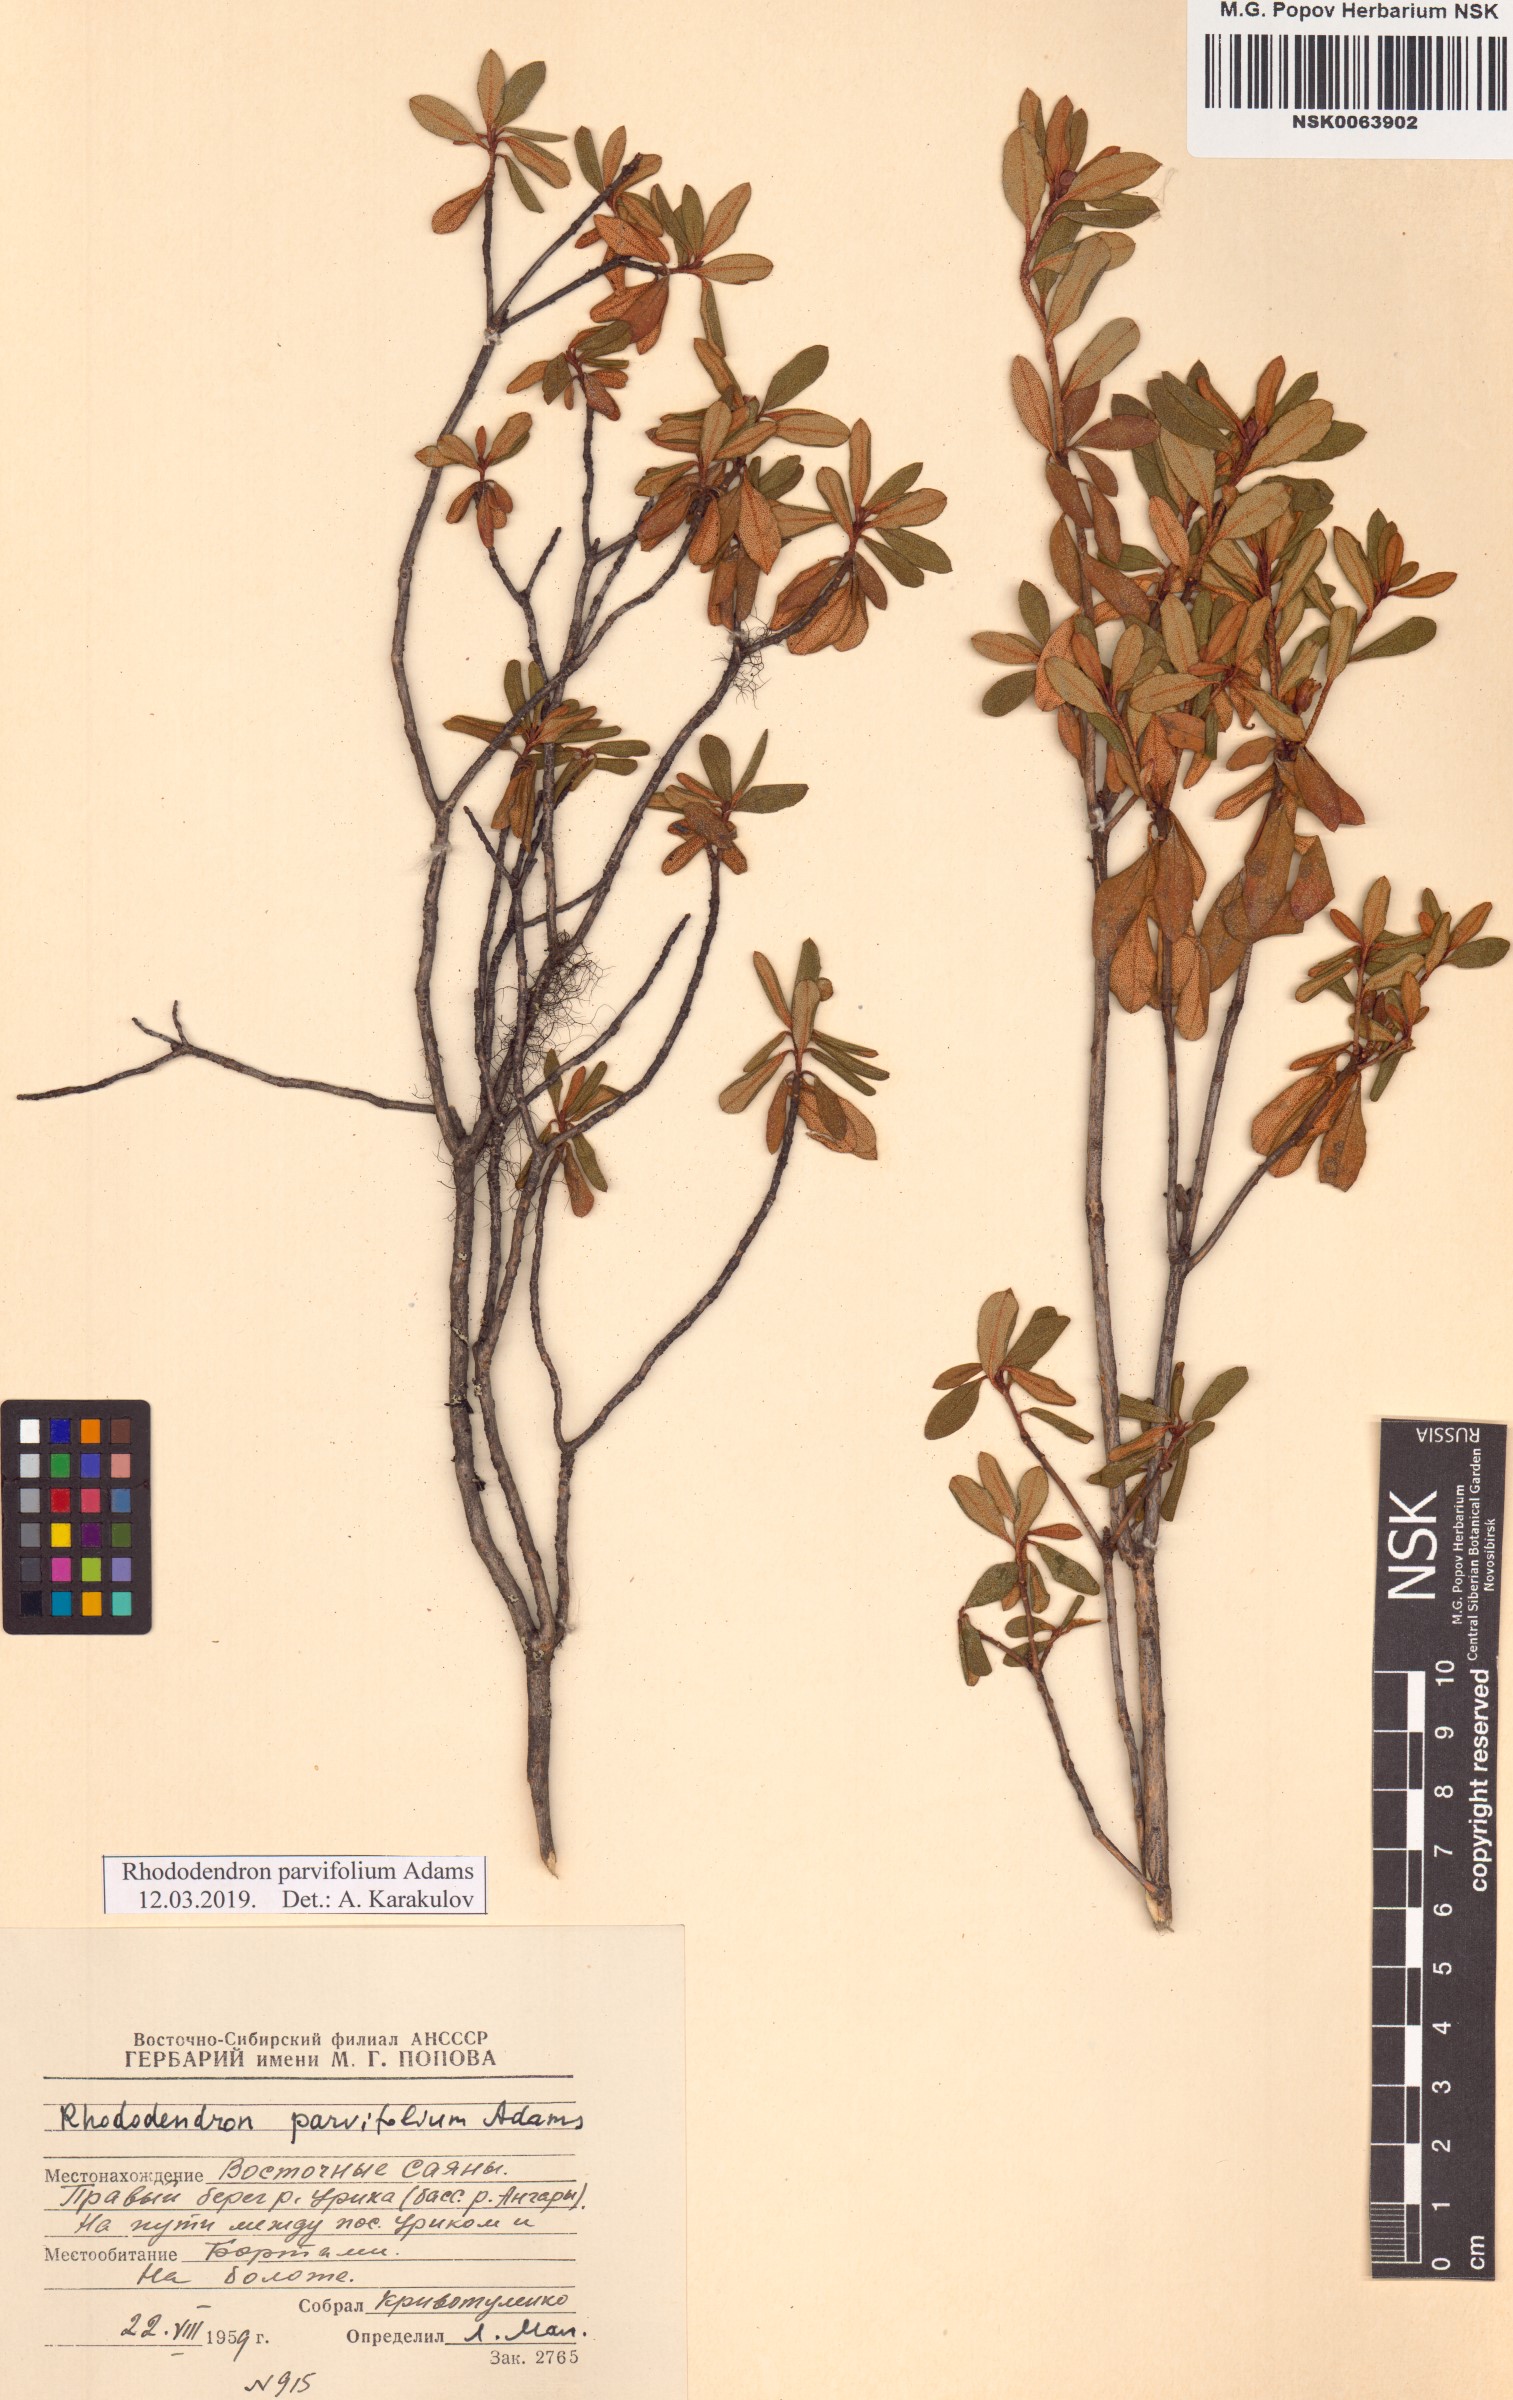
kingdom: Plantae
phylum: Tracheophyta
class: Magnoliopsida
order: Ericales
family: Ericaceae
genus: Rhododendron
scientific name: Rhododendron parvifolium
